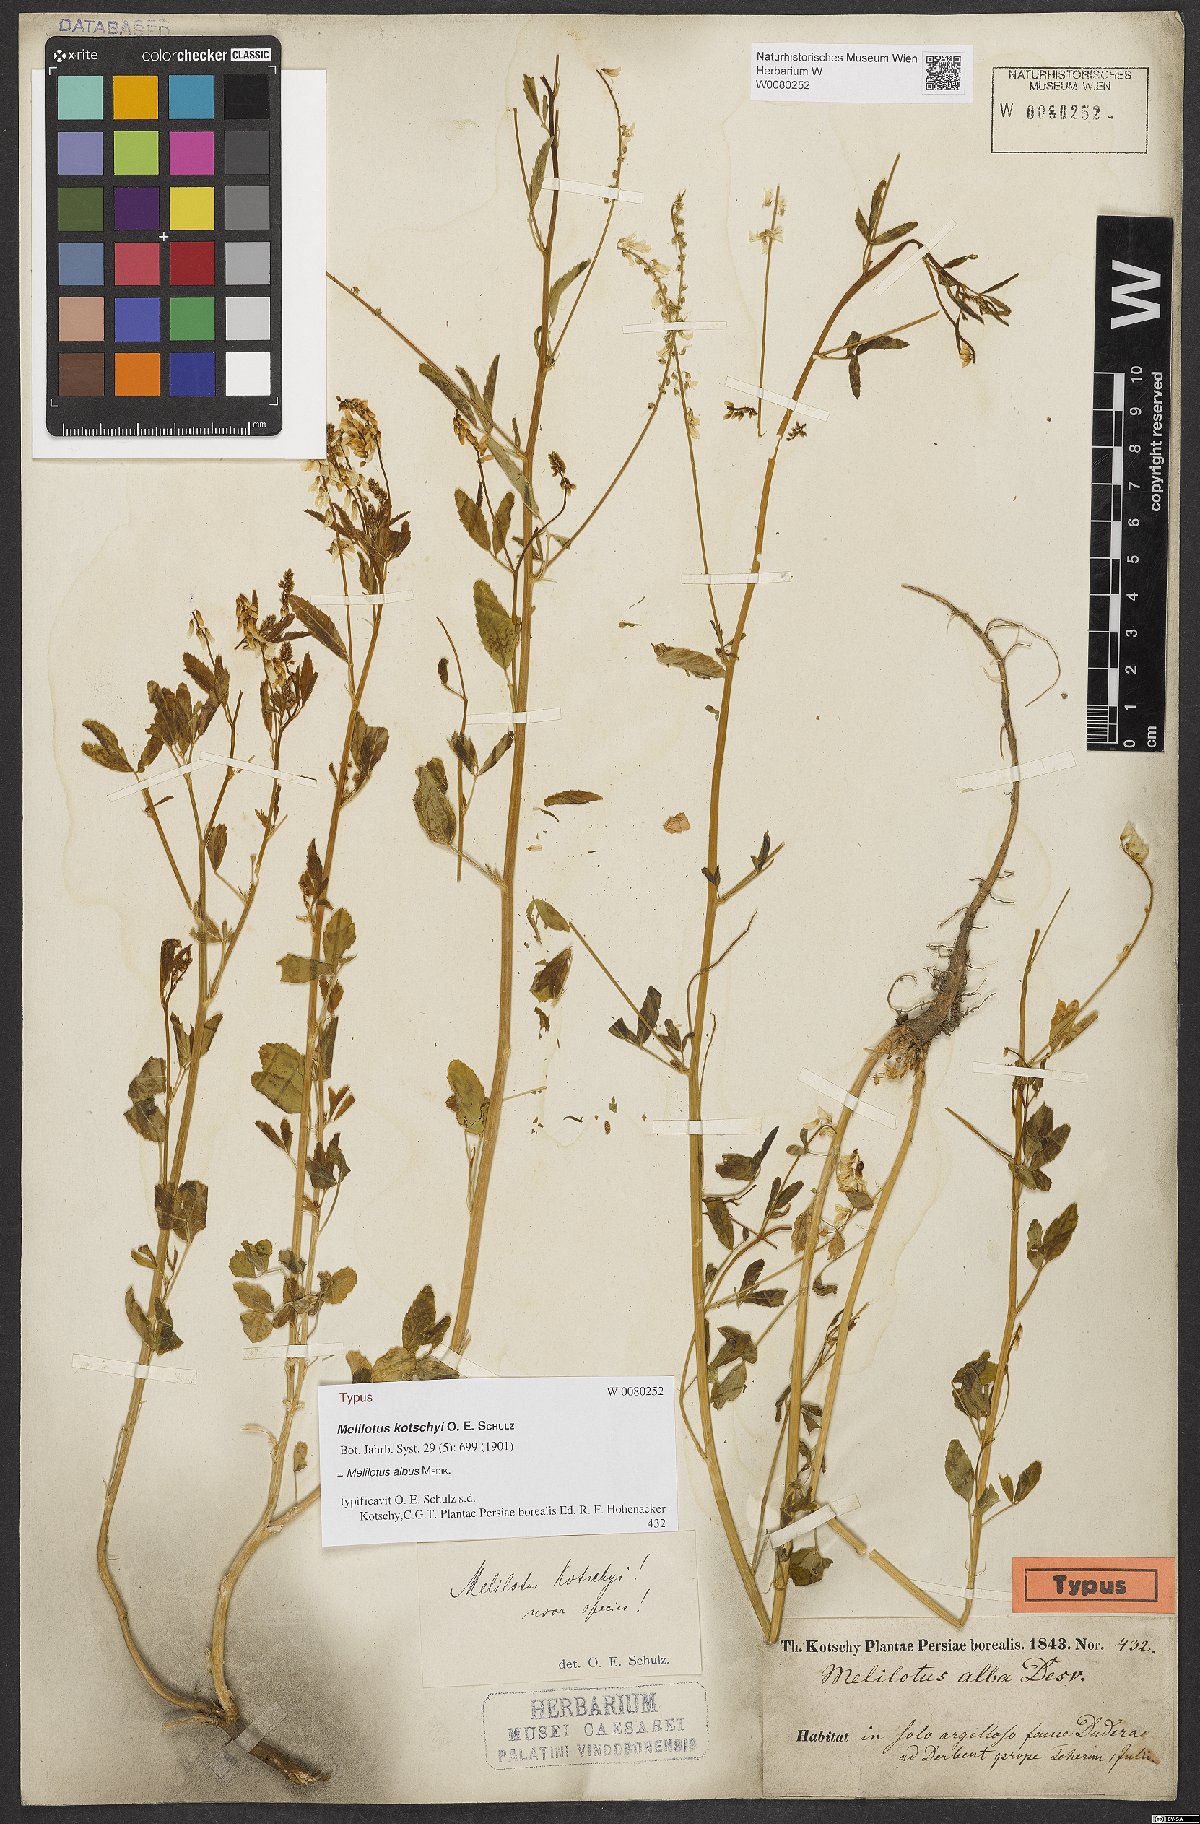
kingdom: Plantae
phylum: Tracheophyta
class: Magnoliopsida
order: Fabales
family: Fabaceae
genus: Melilotus
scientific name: Melilotus albus
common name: White melilot
